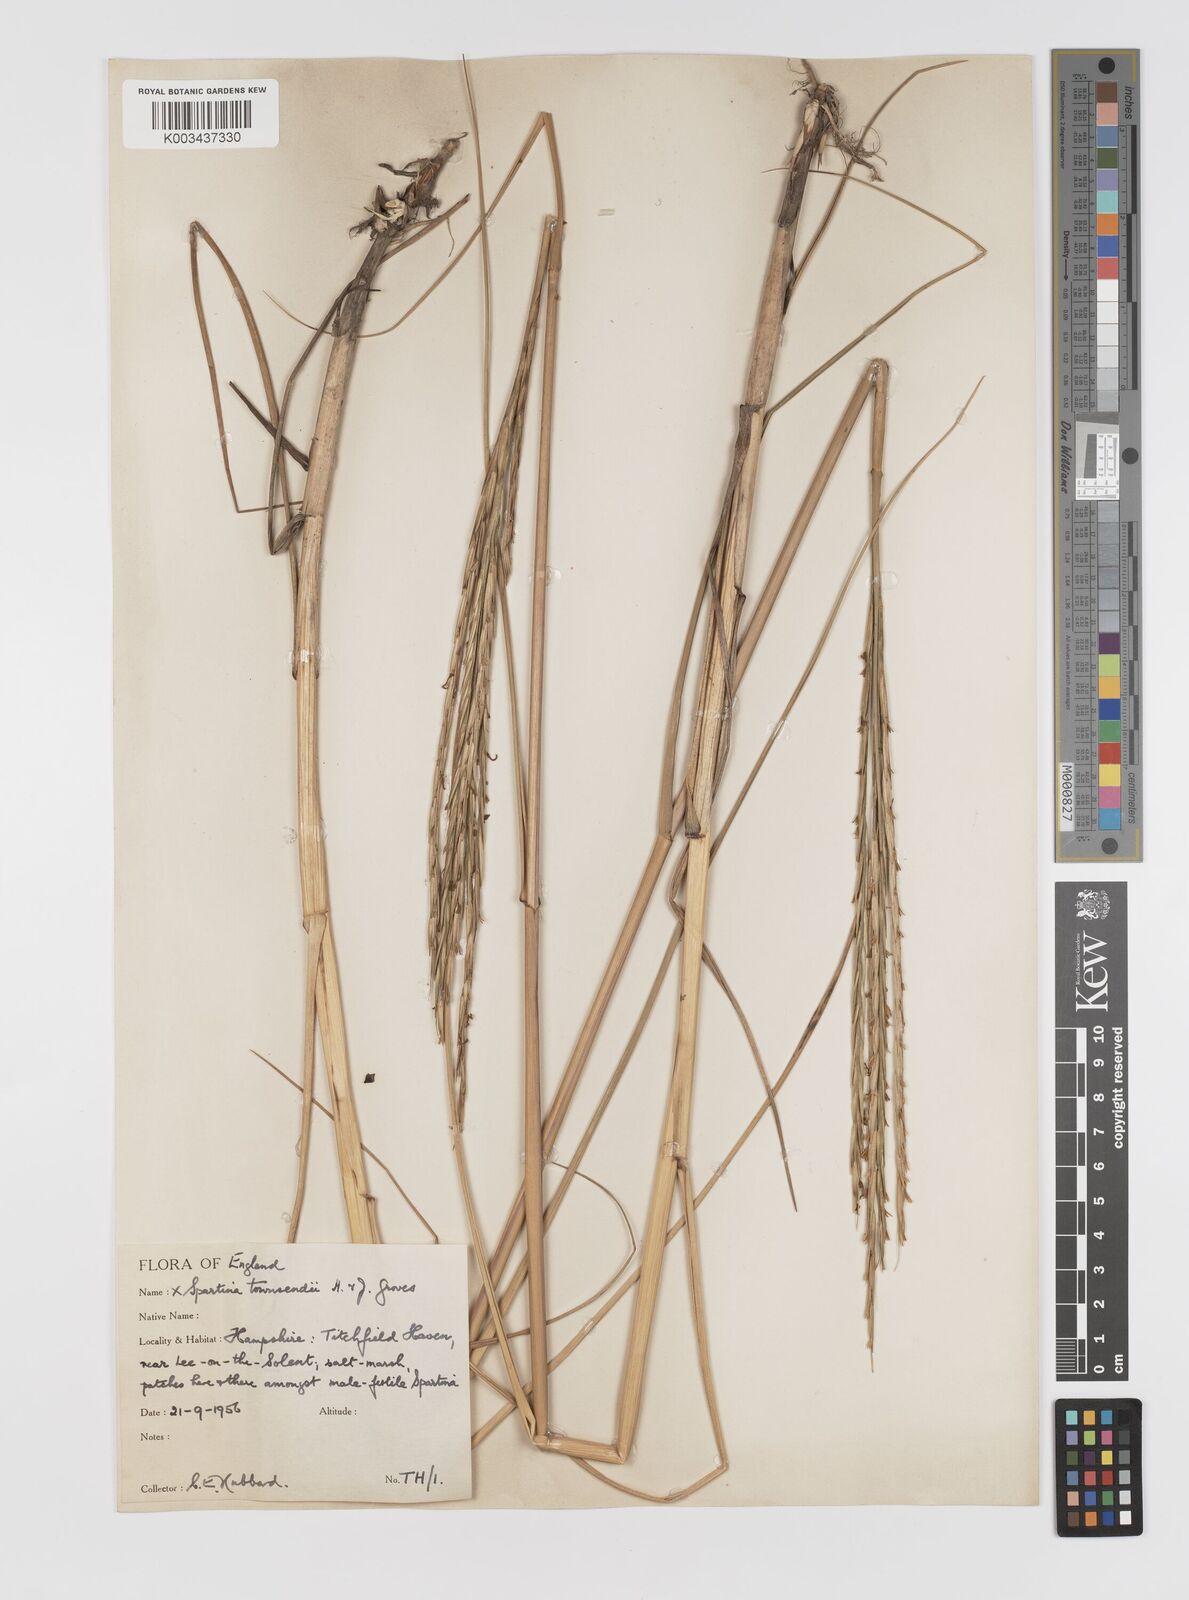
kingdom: Plantae
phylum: Tracheophyta
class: Liliopsida
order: Poales
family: Poaceae
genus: Sporobolus
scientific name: Sporobolus townsendii
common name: Townsend's cordgrass
